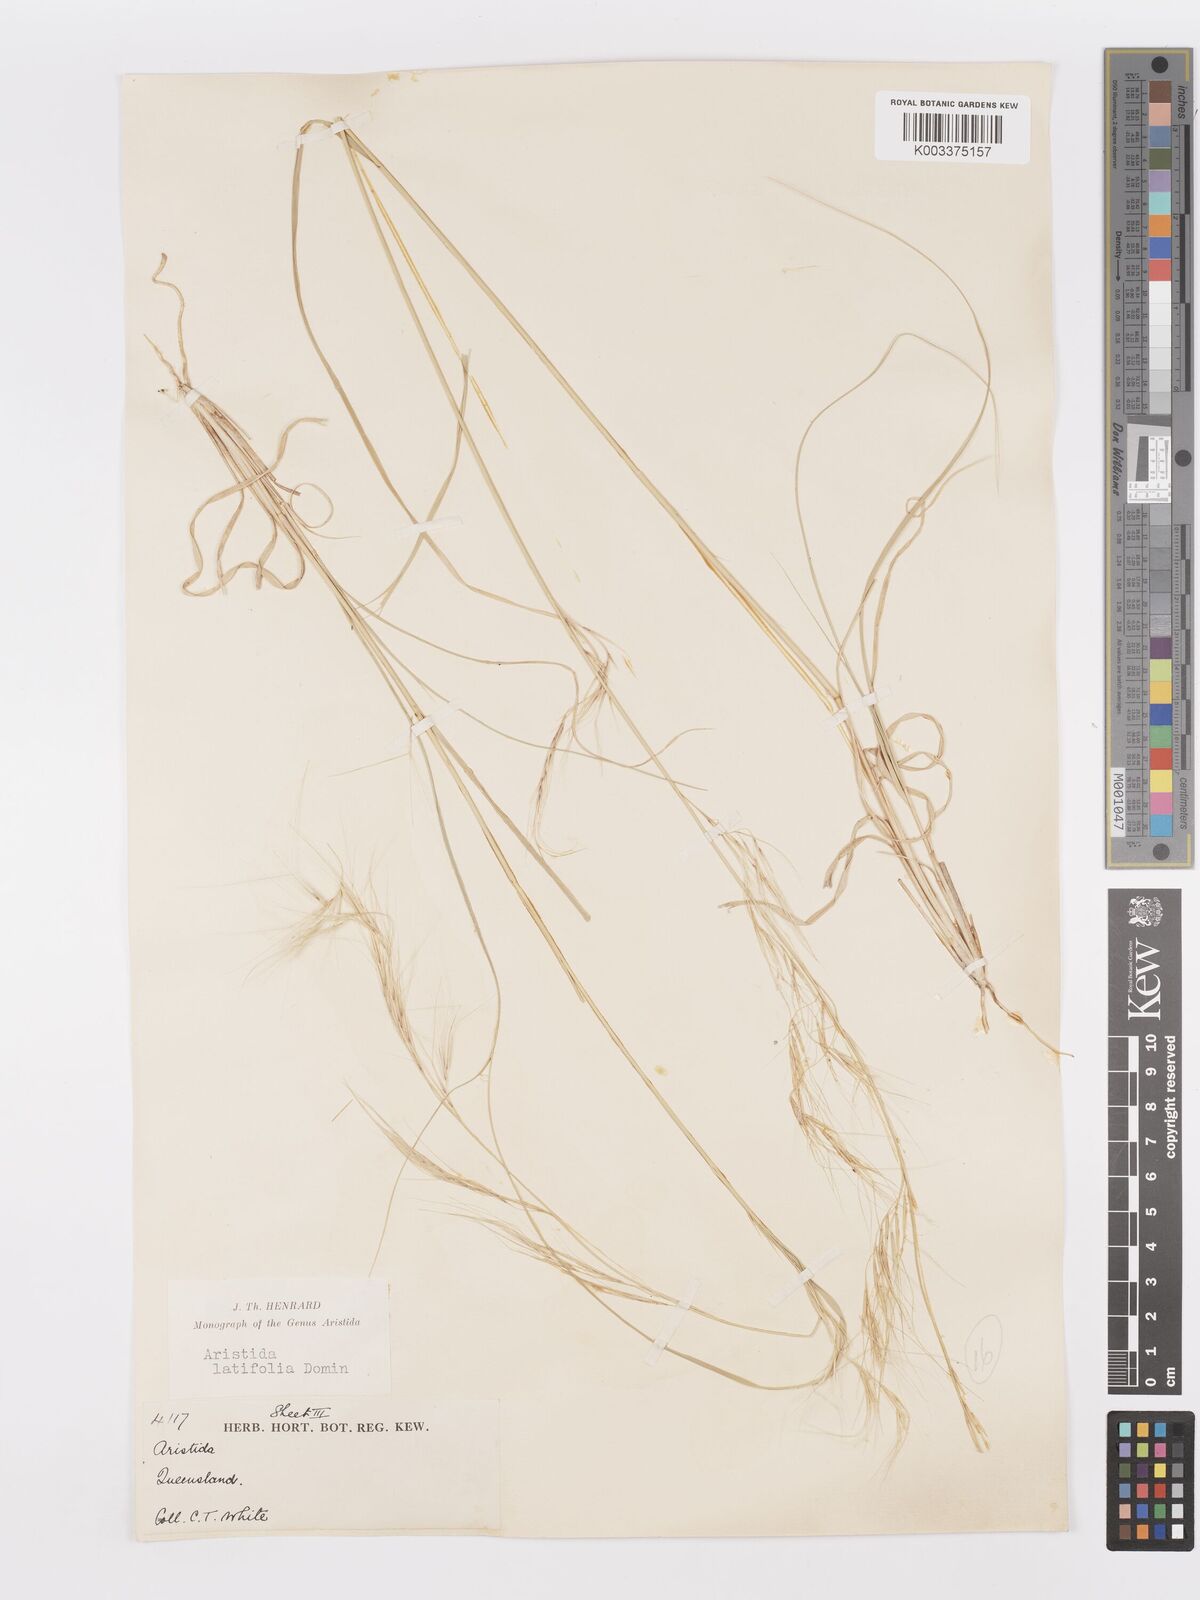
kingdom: Plantae
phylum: Tracheophyta
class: Liliopsida
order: Poales
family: Poaceae
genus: Aristida
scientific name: Aristida latifolia
